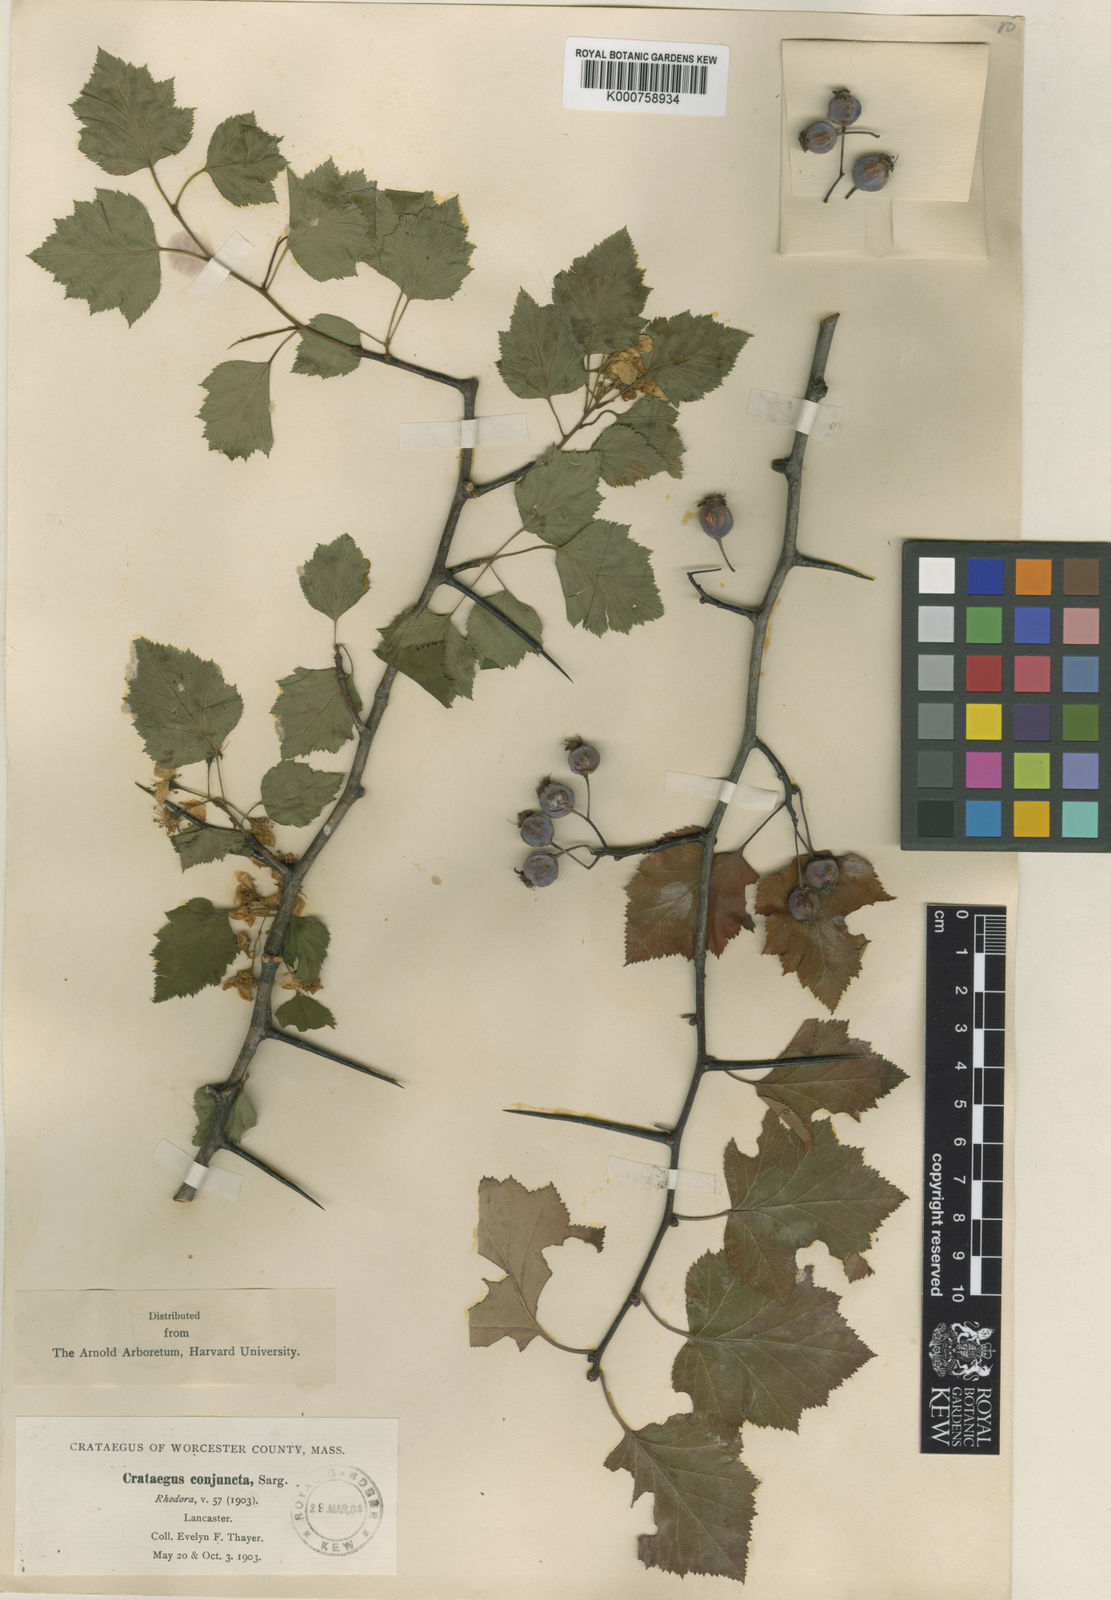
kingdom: Plantae
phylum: Tracheophyta
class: Magnoliopsida
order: Rosales
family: Rosaceae
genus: Crataegus
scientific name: Crataegus pruinosa
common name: Waxy-fruit hawthorn
